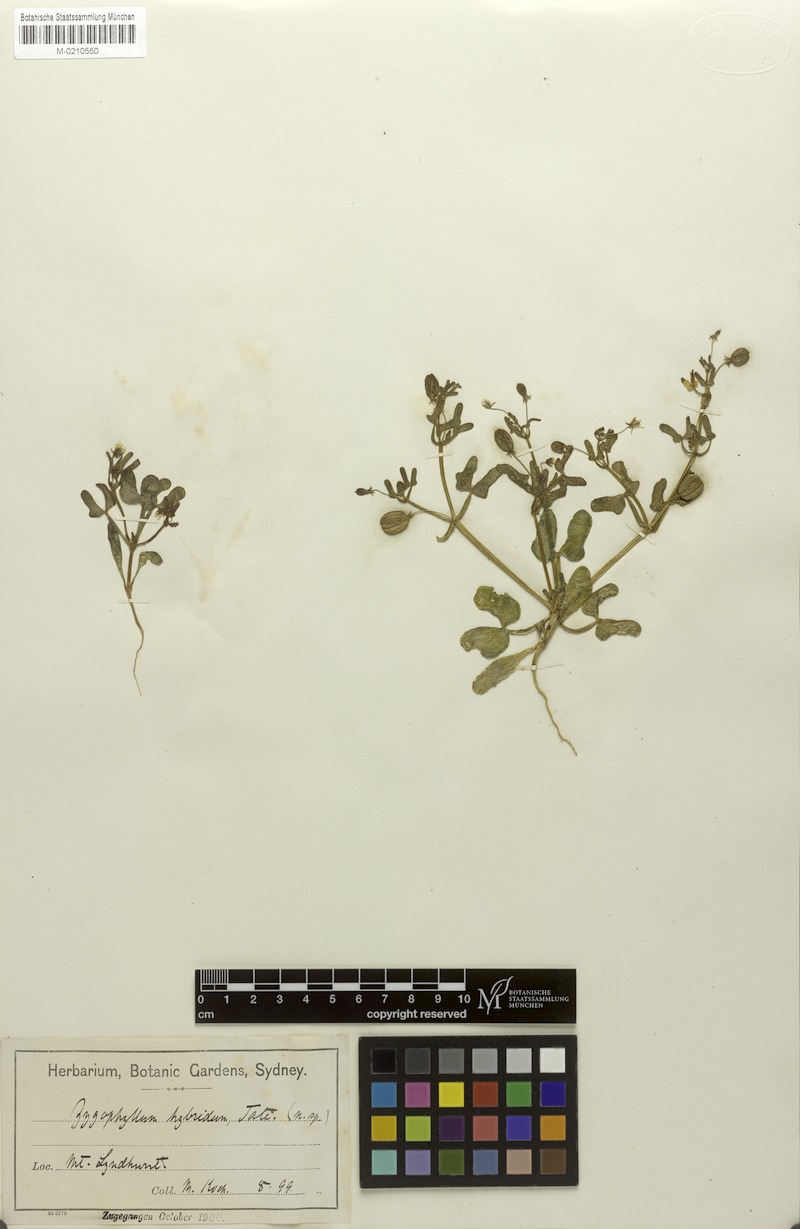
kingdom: Plantae
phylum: Tracheophyta
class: Magnoliopsida
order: Zygophyllales
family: Zygophyllaceae
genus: Roepera
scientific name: Roepera hybrida
